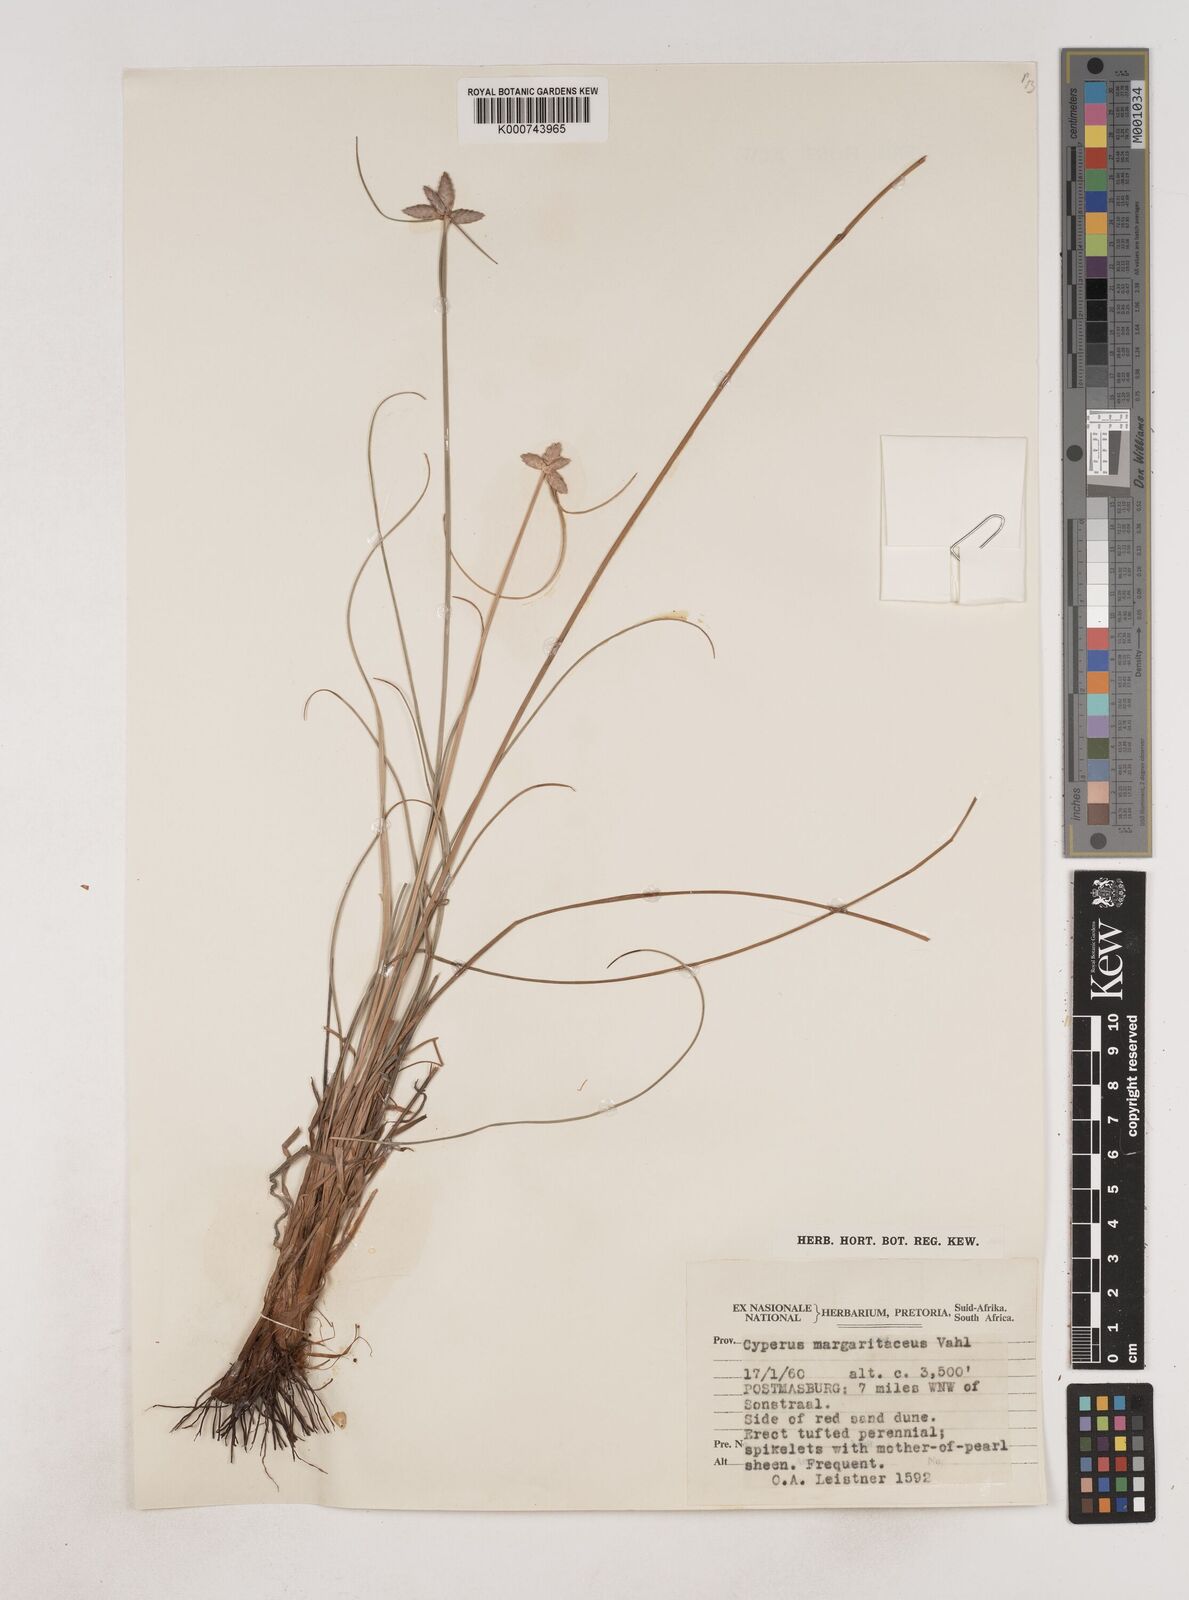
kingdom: Plantae
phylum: Tracheophyta
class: Liliopsida
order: Poales
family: Cyperaceae
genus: Cyperus
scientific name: Cyperus margaritaceus
